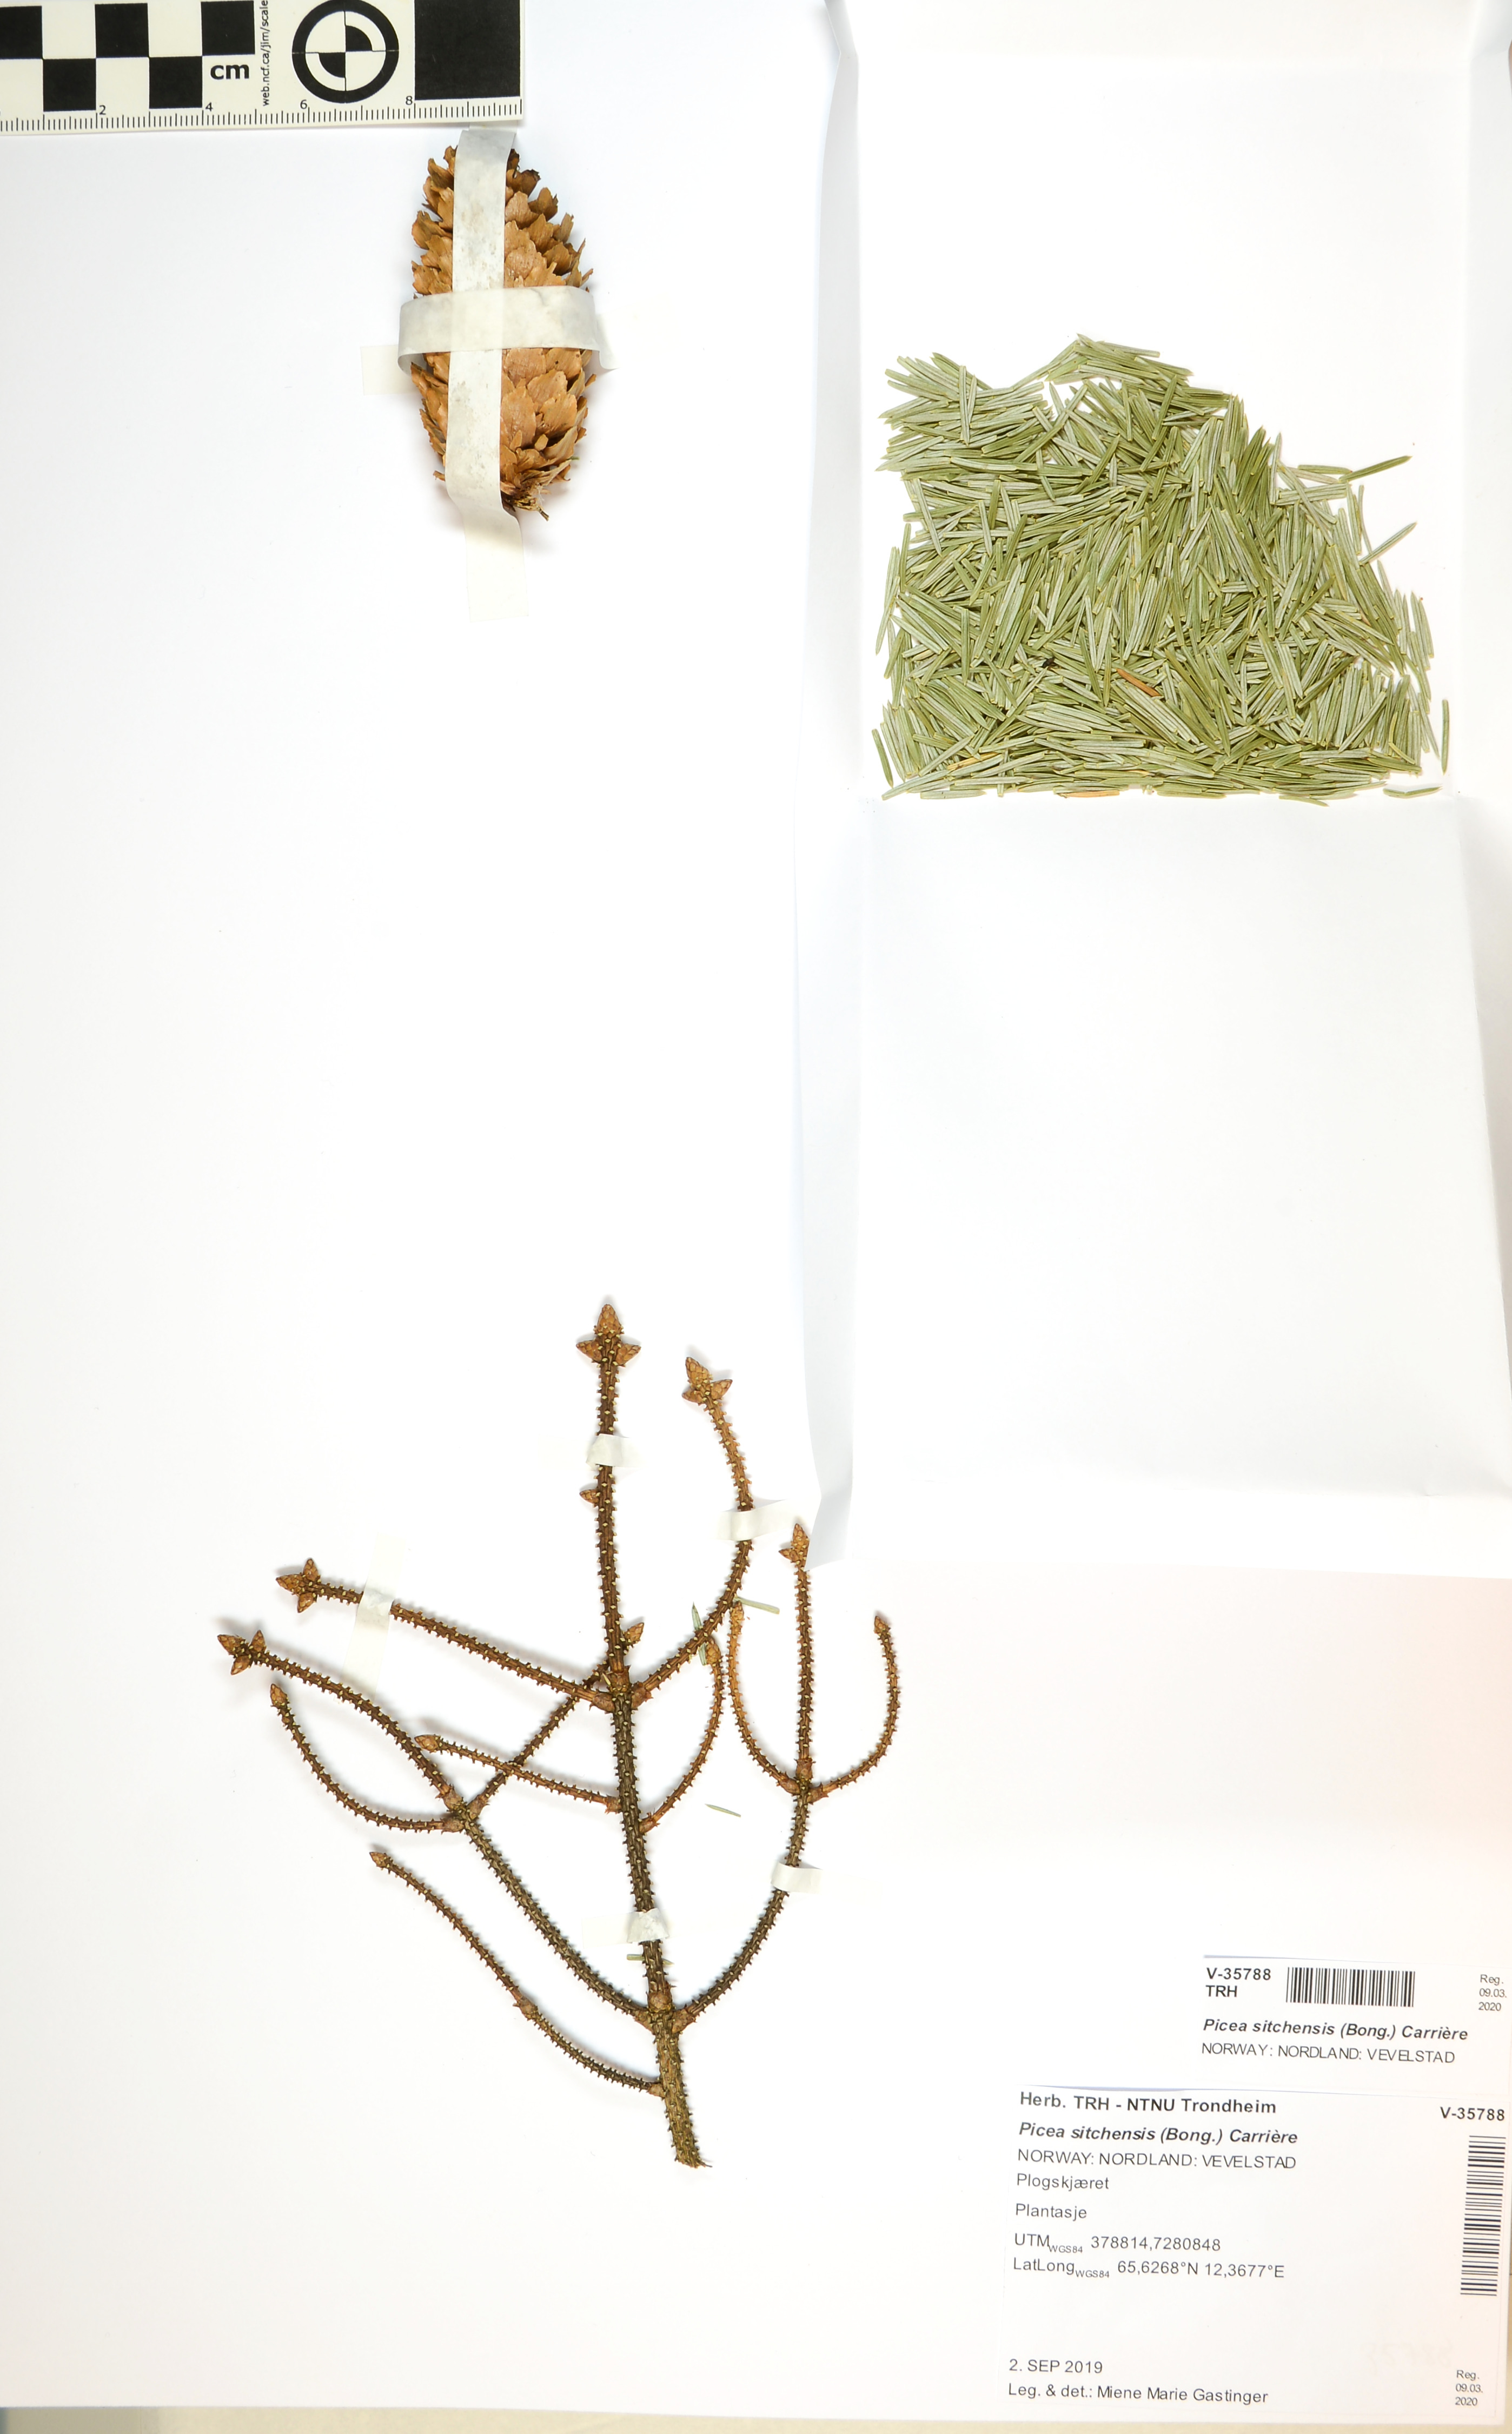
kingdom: Plantae
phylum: Tracheophyta
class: Pinopsida
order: Pinales
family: Pinaceae
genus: Picea
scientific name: Picea sitchensis
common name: Sitka spruce
